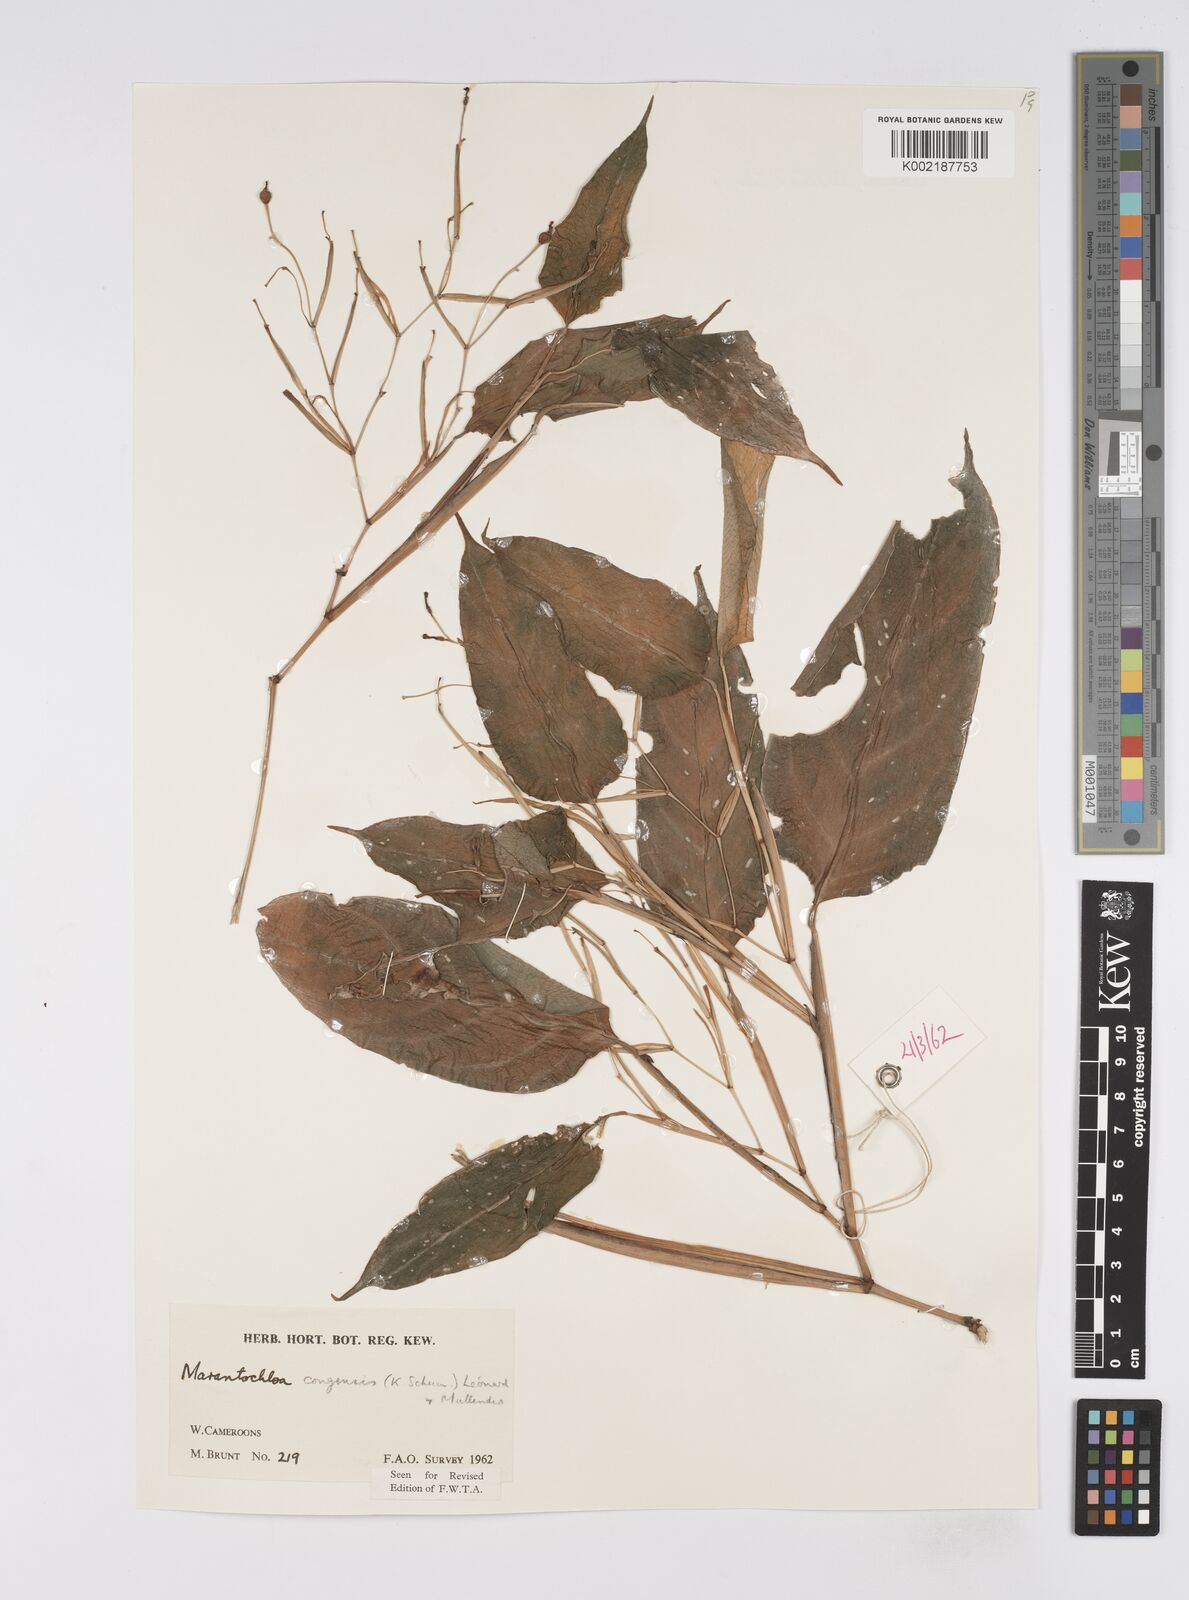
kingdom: Plantae
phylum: Tracheophyta
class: Liliopsida
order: Zingiberales
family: Marantaceae
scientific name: Marantaceae
